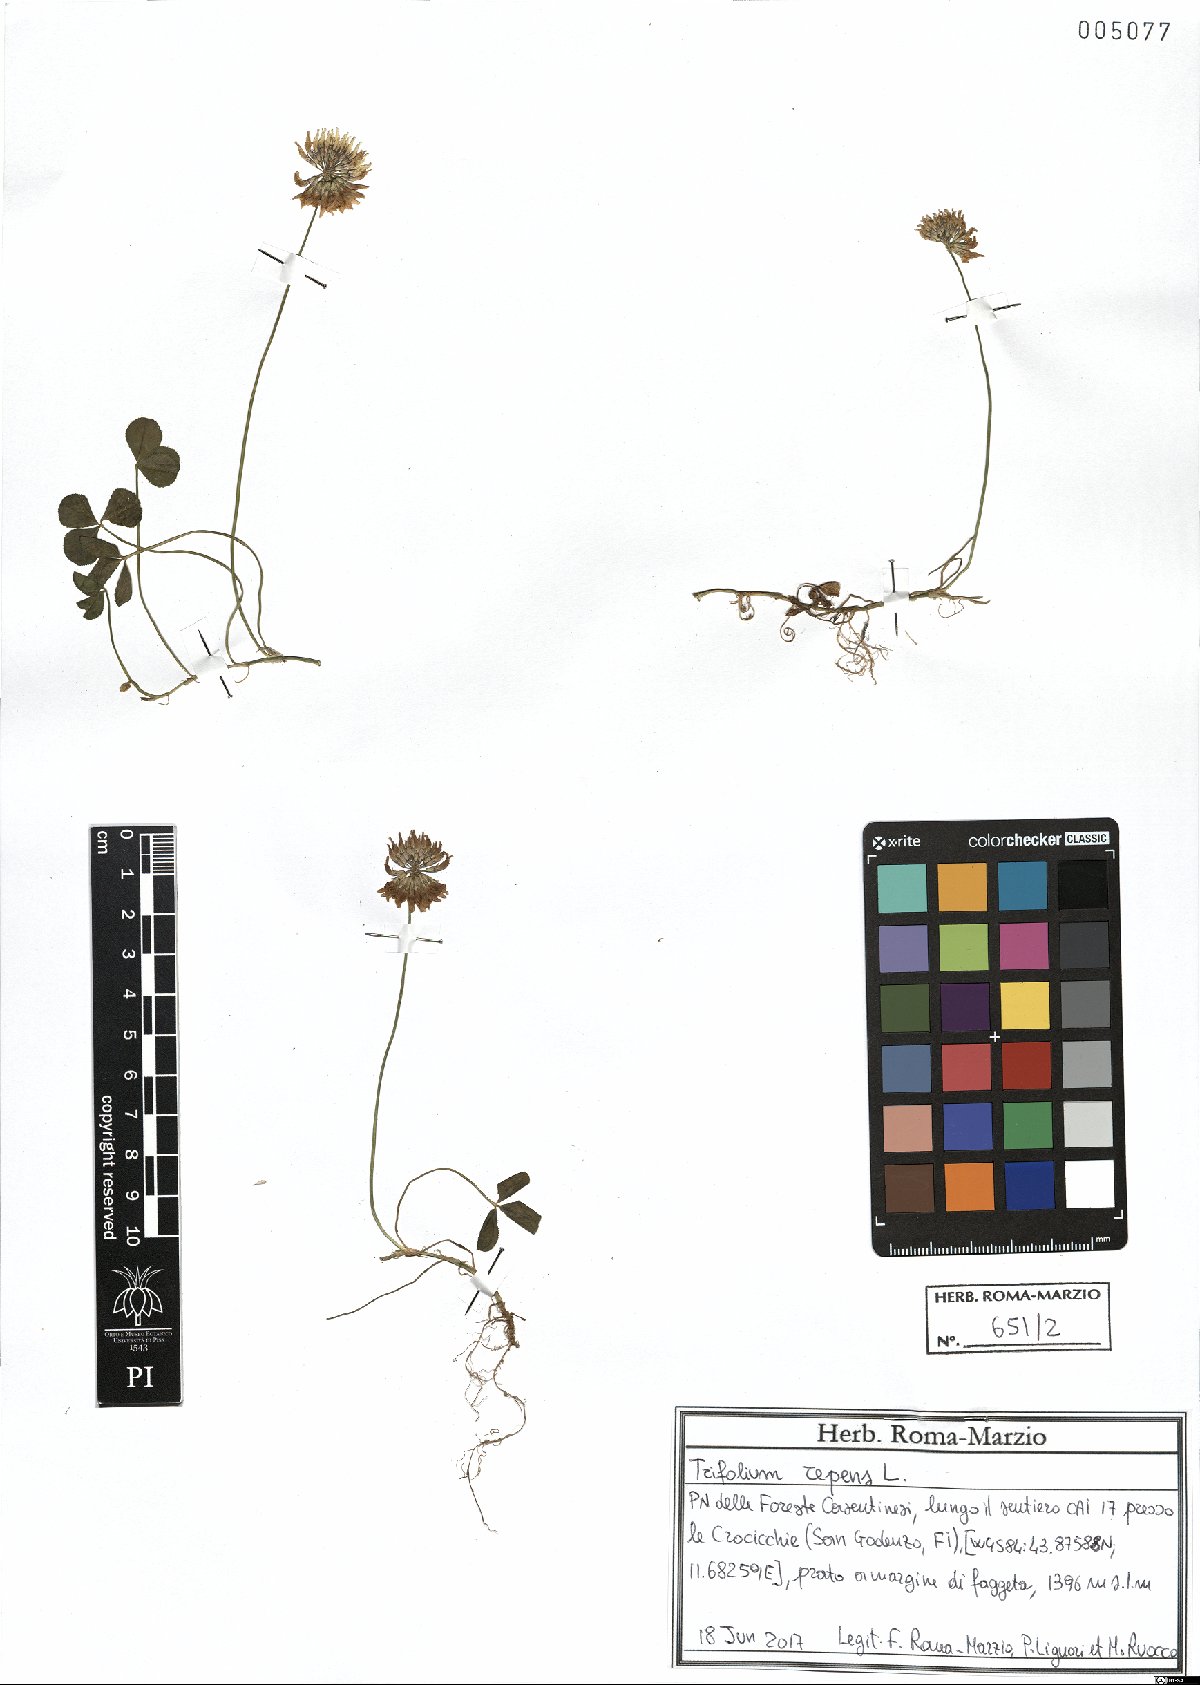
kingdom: Plantae
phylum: Tracheophyta
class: Magnoliopsida
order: Fabales
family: Fabaceae
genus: Trifolium
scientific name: Trifolium repens
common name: White clover
